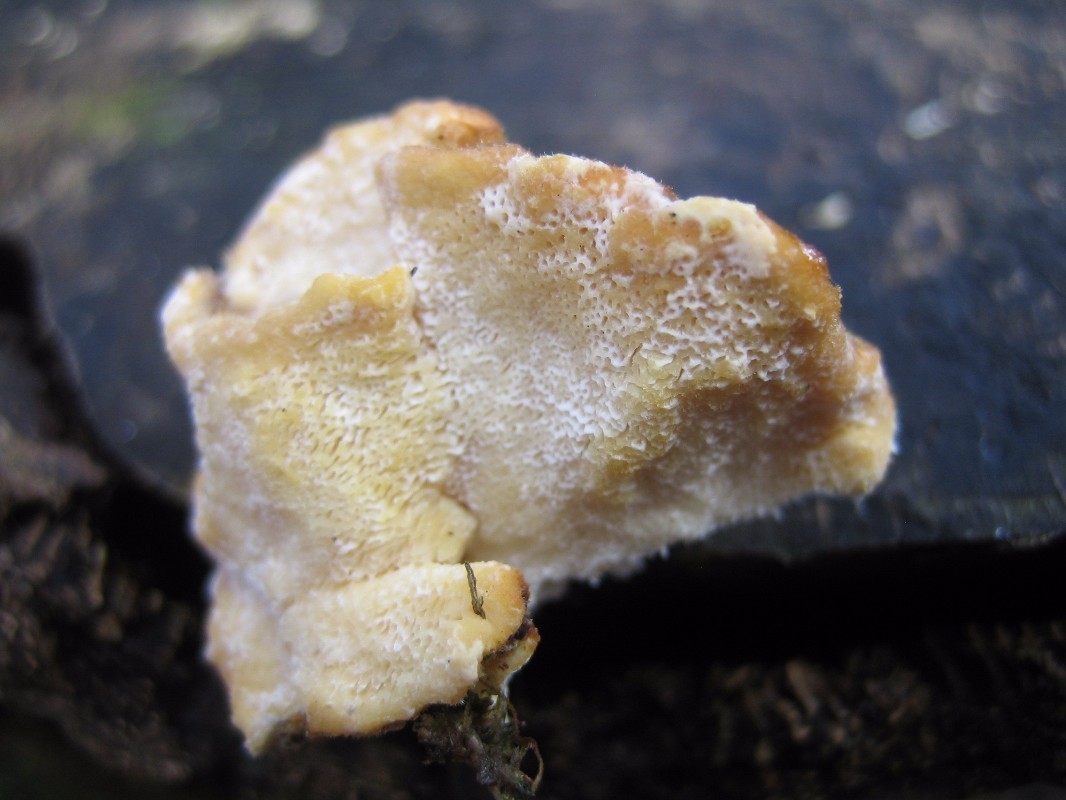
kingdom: Fungi
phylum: Basidiomycota
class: Agaricomycetes
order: Polyporales
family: Polyporaceae
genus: Trametes
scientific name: Trametes
